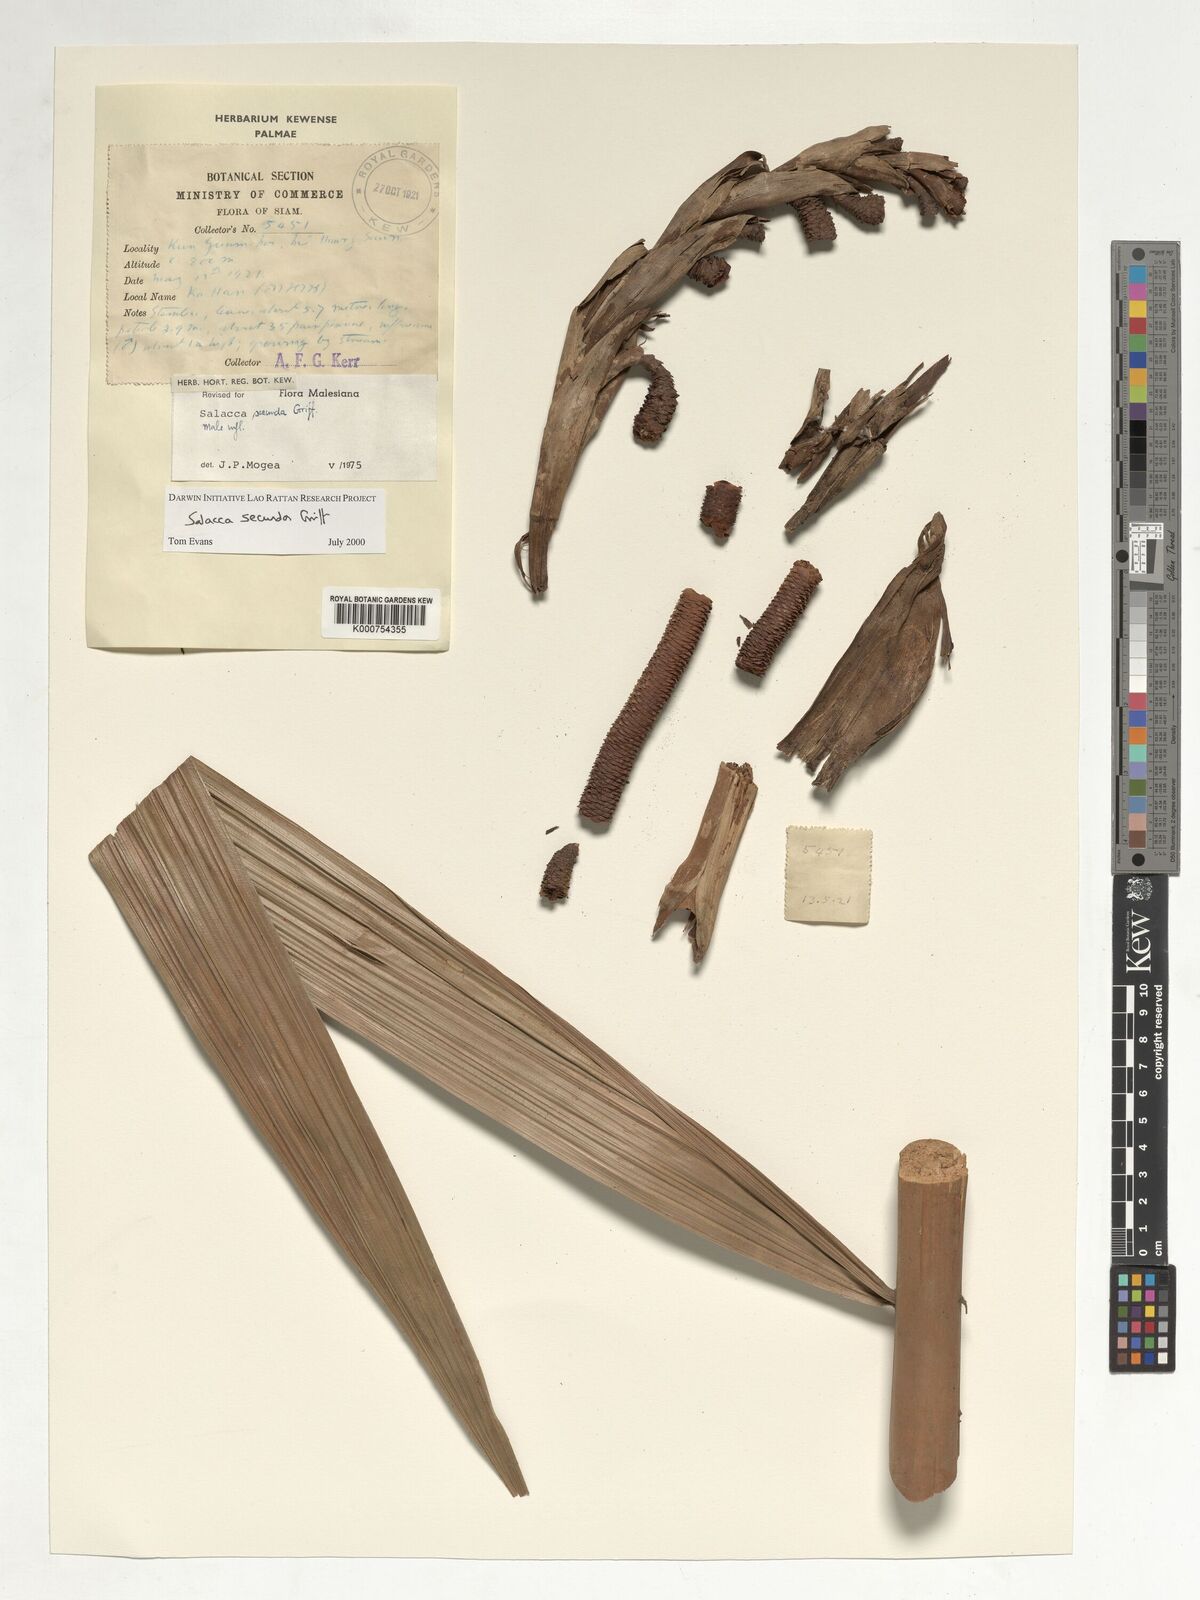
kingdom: Plantae
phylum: Tracheophyta
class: Liliopsida
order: Arecales
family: Arecaceae
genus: Salacca
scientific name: Salacca secunda
